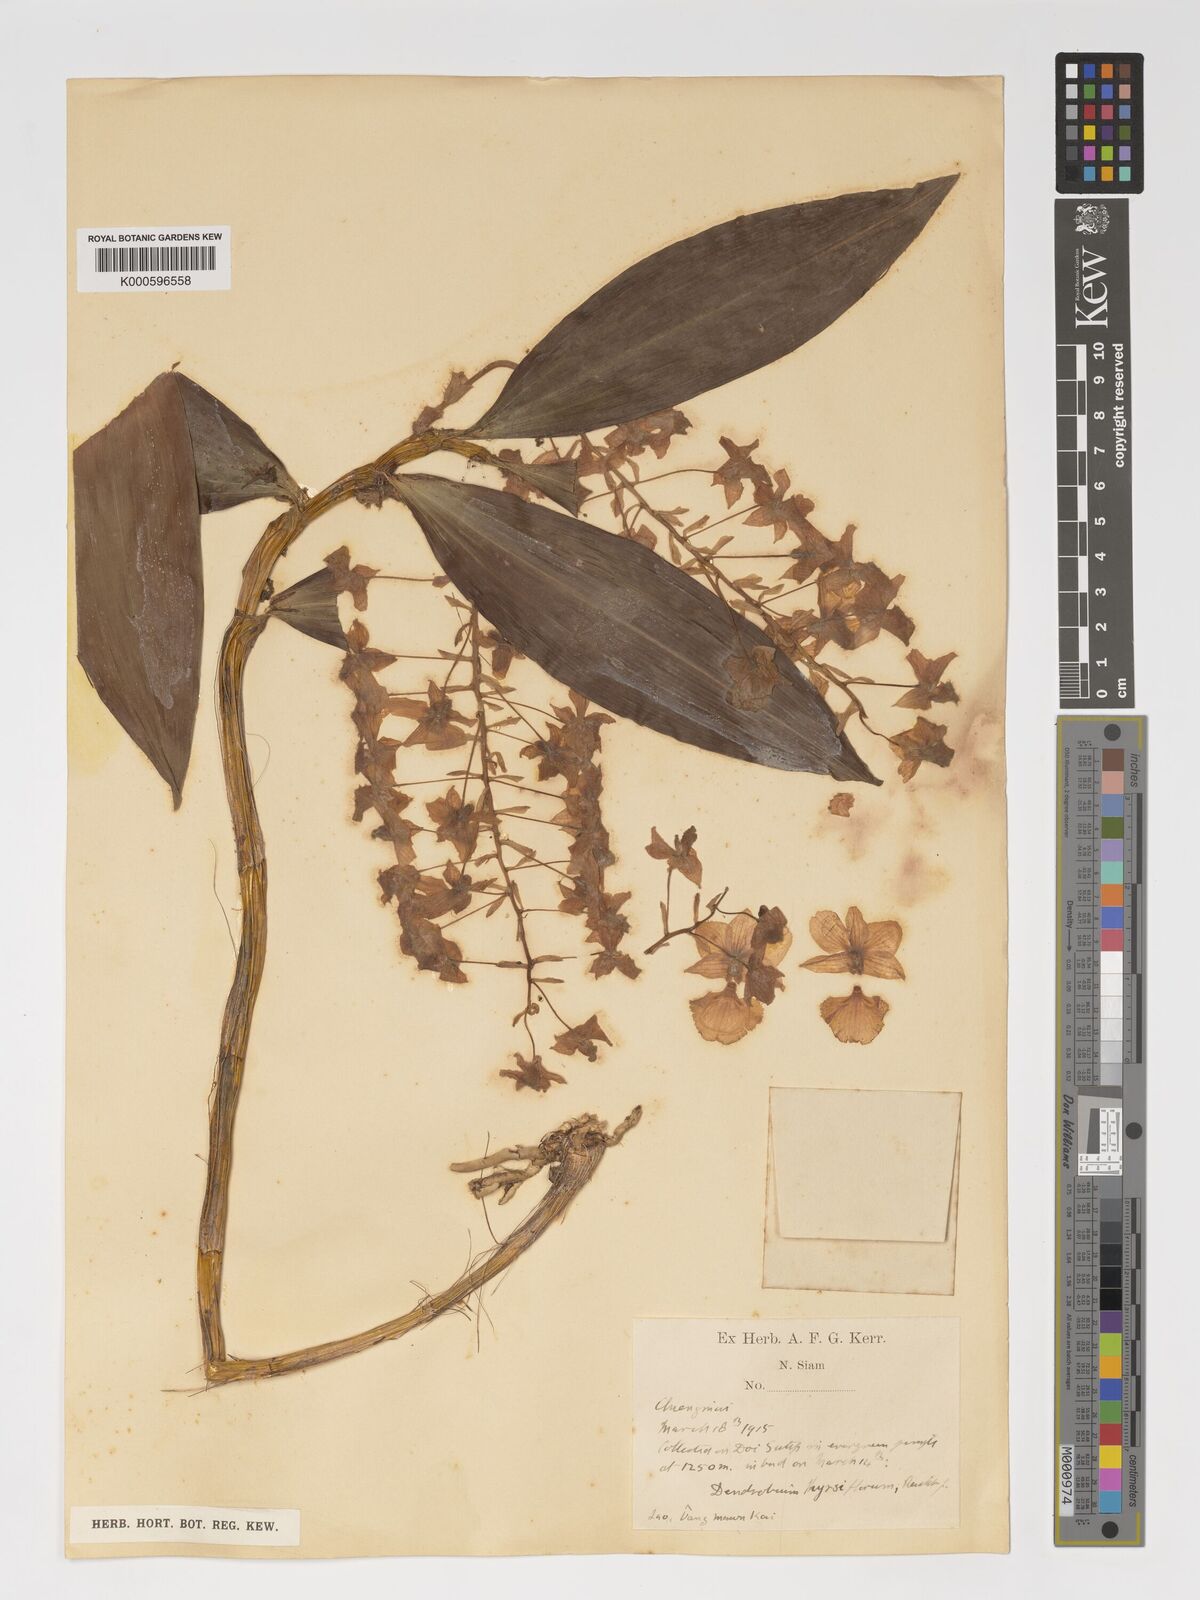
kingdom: Plantae
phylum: Tracheophyta
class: Liliopsida
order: Asparagales
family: Orchidaceae
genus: Dendrobium
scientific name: Dendrobium
